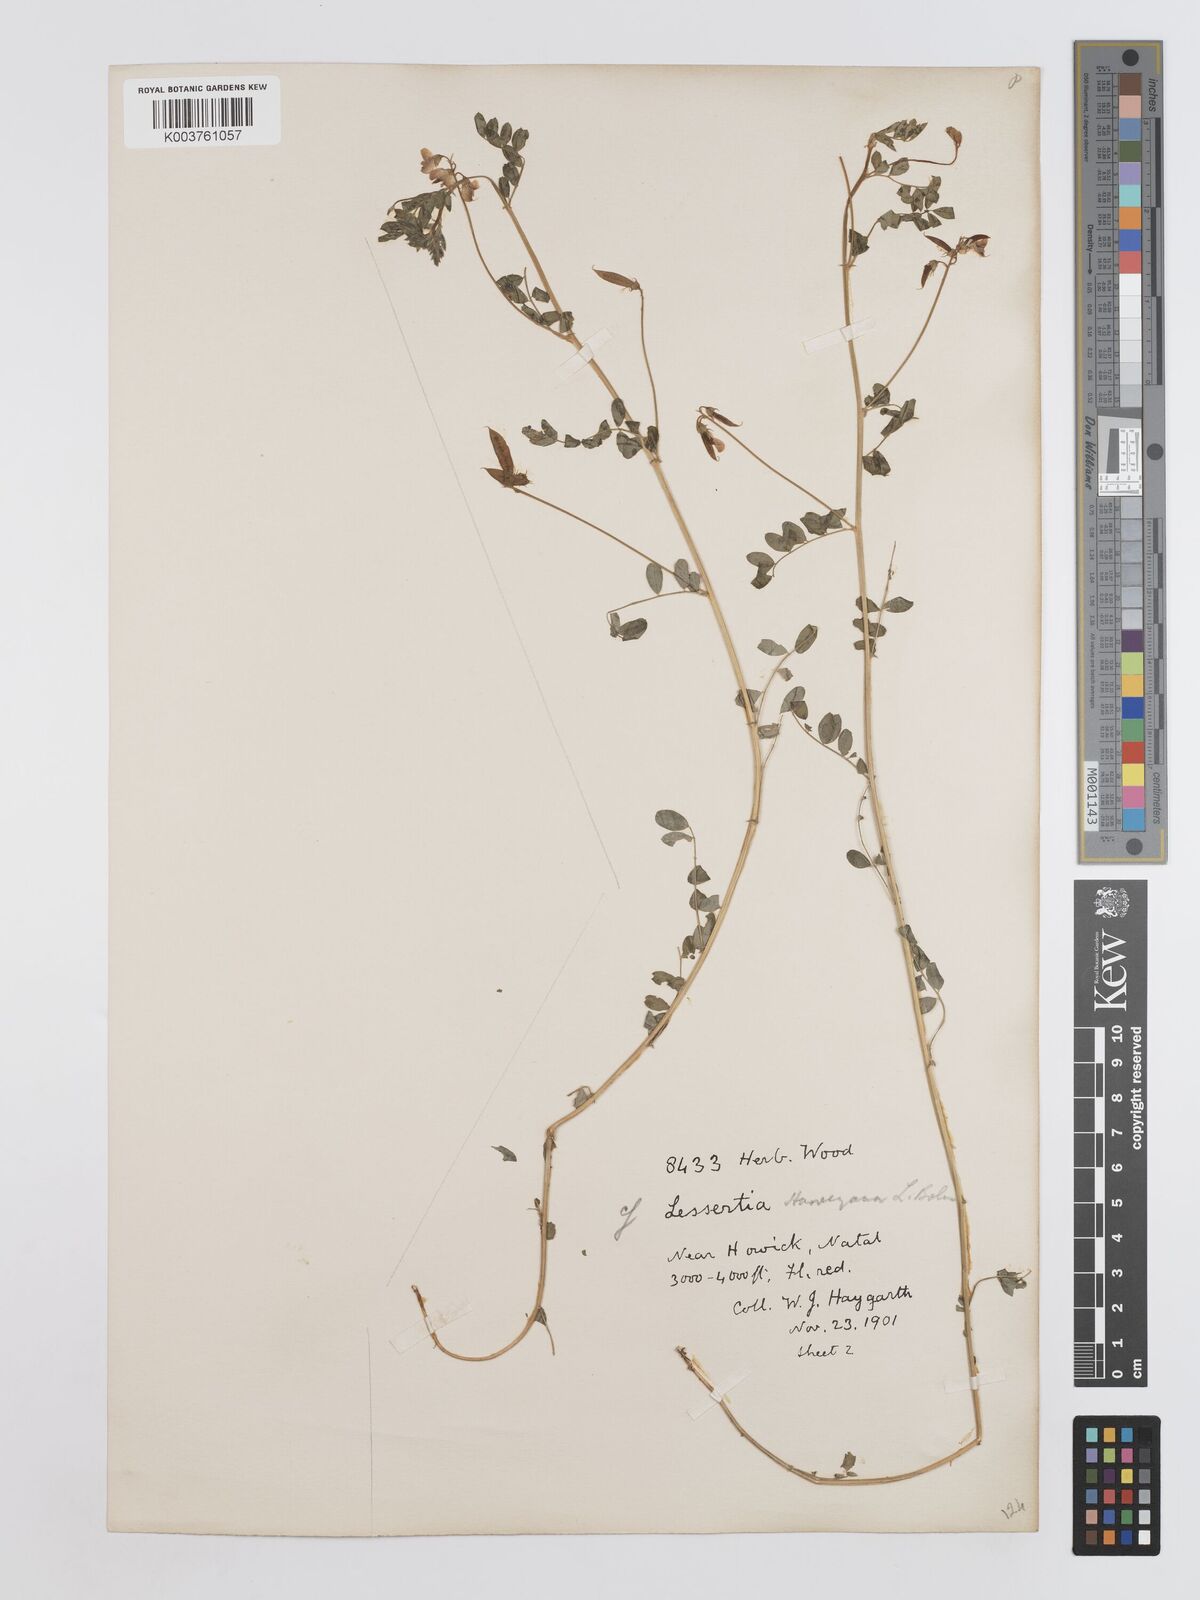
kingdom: Plantae
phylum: Tracheophyta
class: Magnoliopsida
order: Fabales
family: Fabaceae
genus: Lessertia
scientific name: Lessertia harveyana
